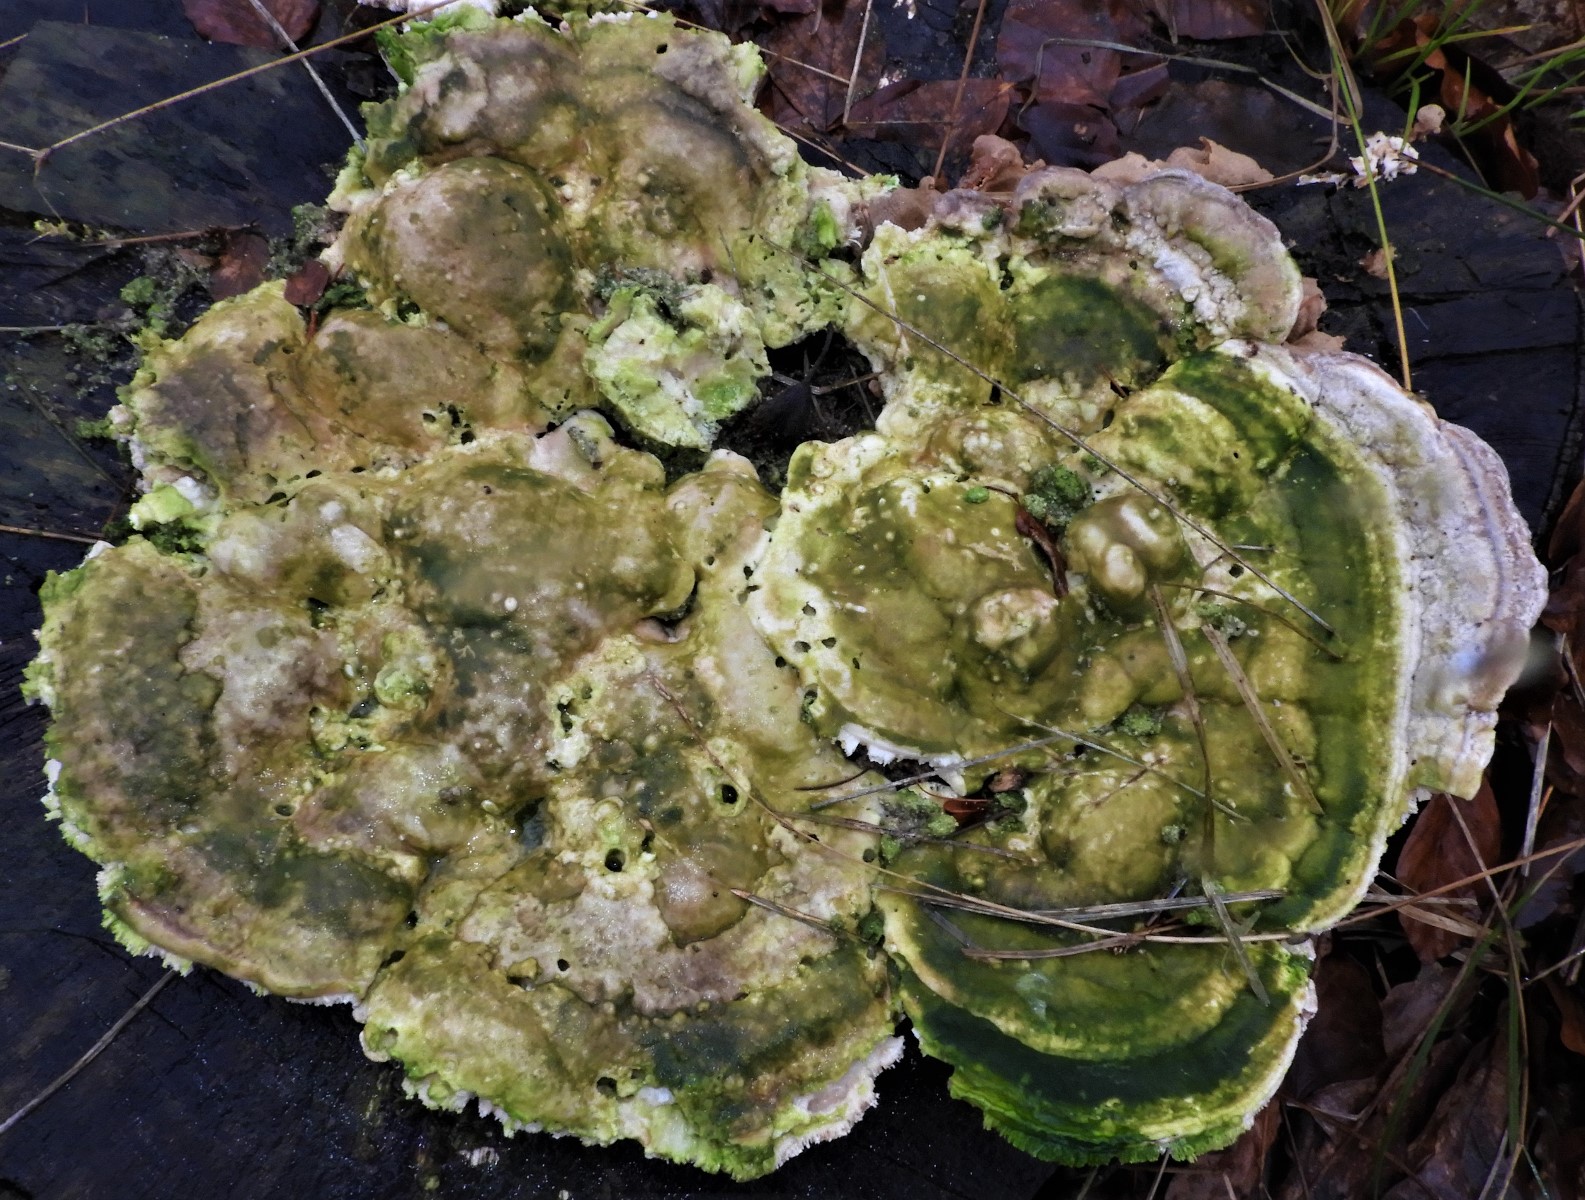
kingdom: Fungi
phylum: Basidiomycota
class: Agaricomycetes
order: Polyporales
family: Polyporaceae
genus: Trametes
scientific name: Trametes gibbosa
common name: puklet læderporesvamp
